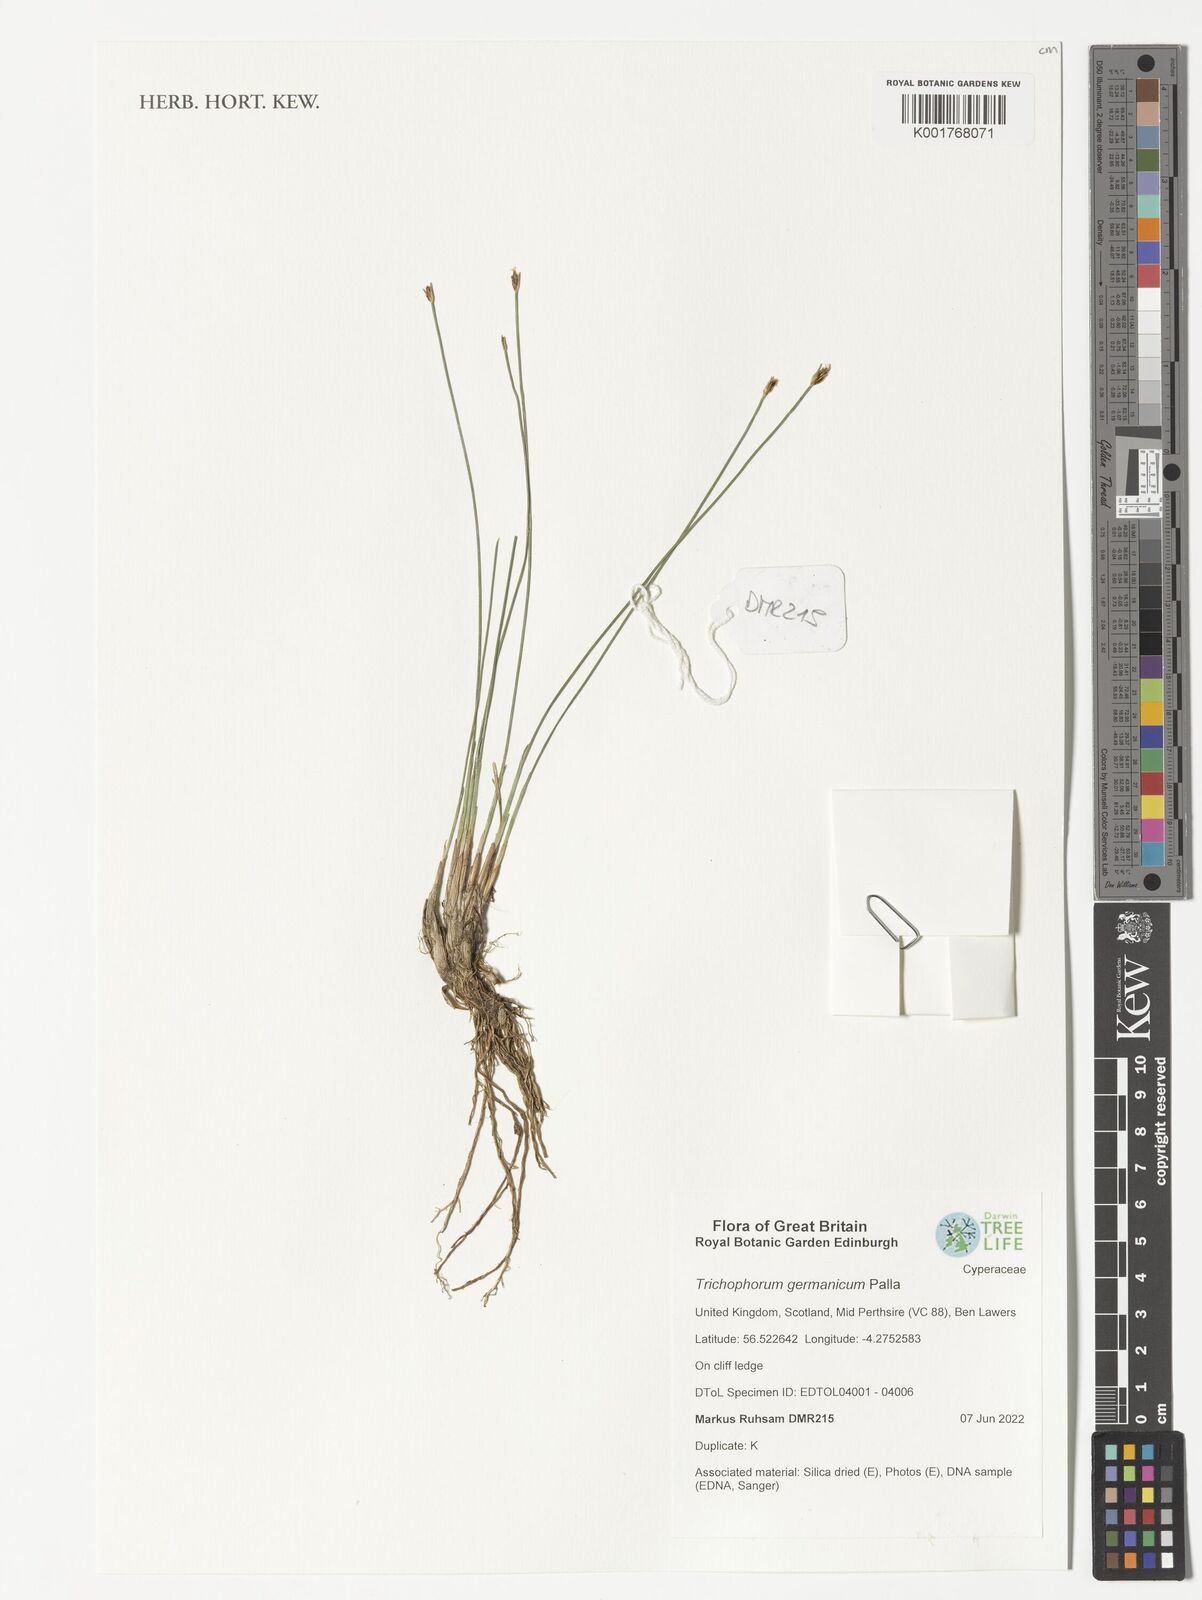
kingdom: Plantae
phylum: Tracheophyta
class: Liliopsida
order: Poales
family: Cyperaceae
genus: Trichophorum
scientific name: Trichophorum cespitosum
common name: Cespitose bulrush
